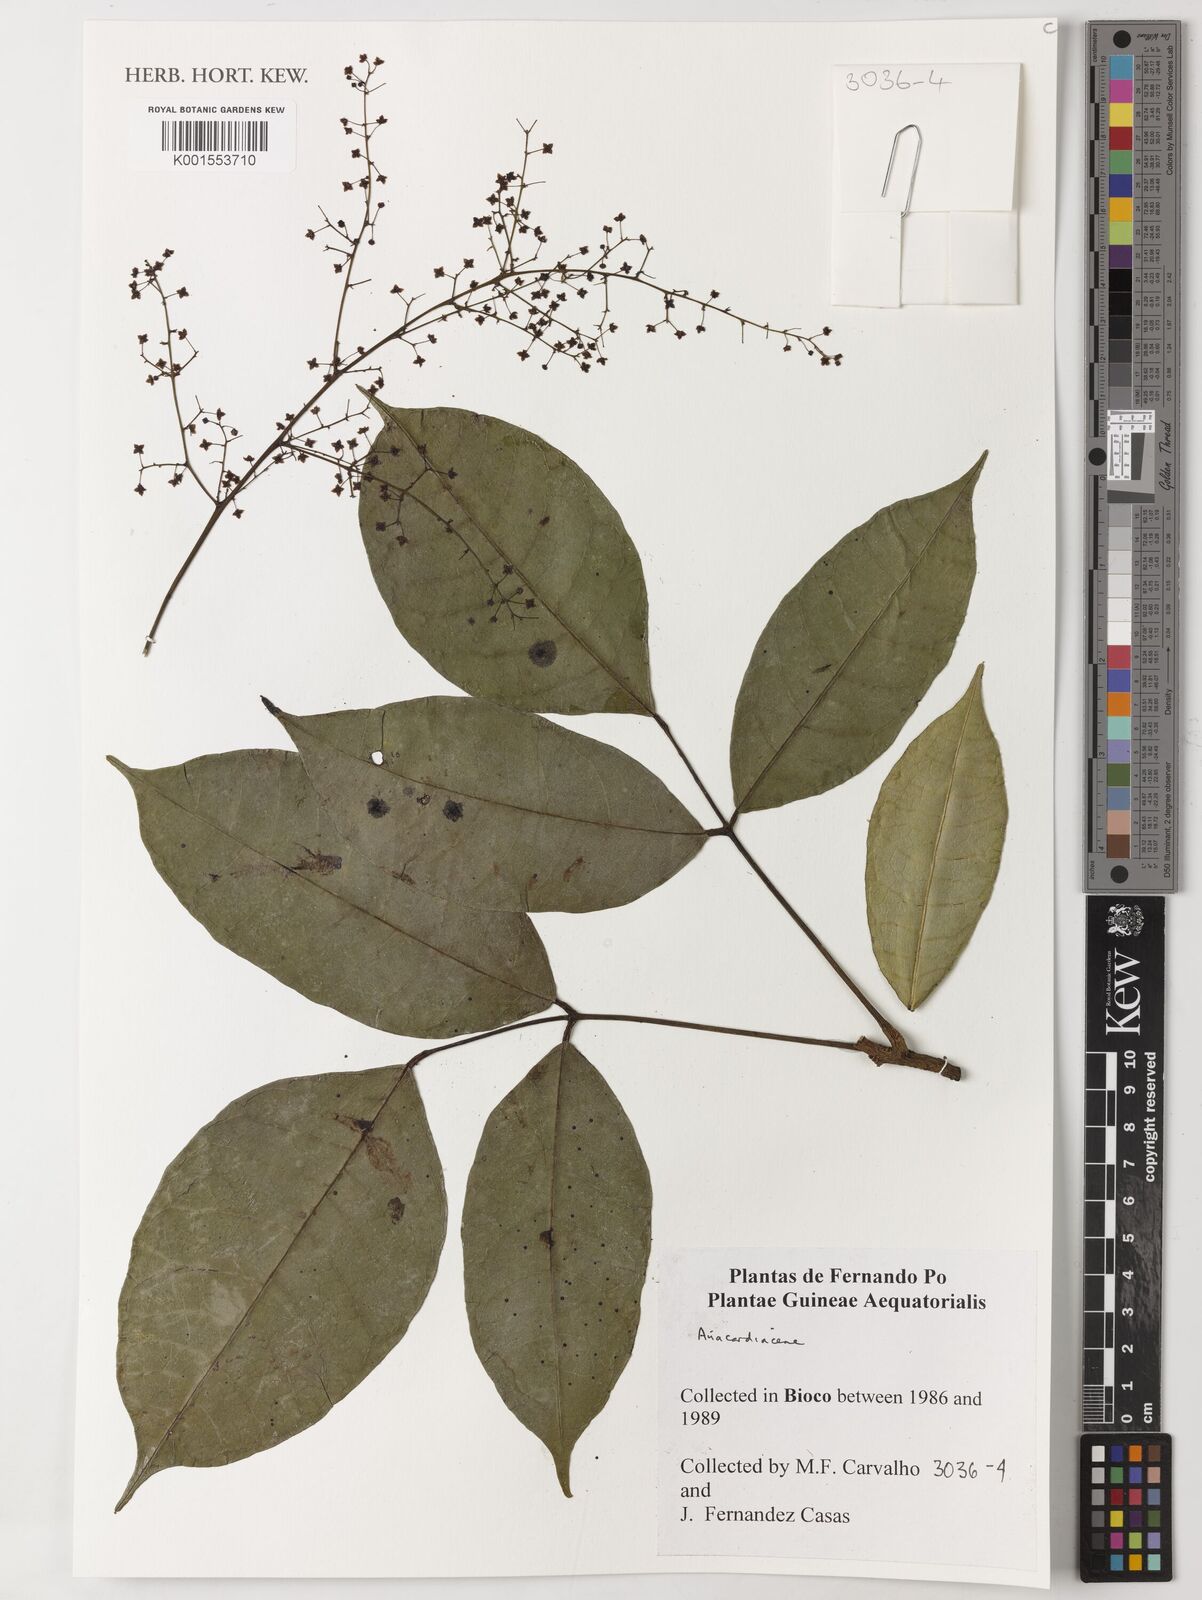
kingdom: Plantae
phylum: Tracheophyta
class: Magnoliopsida
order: Sapindales
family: Anacardiaceae
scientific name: Anacardiaceae
